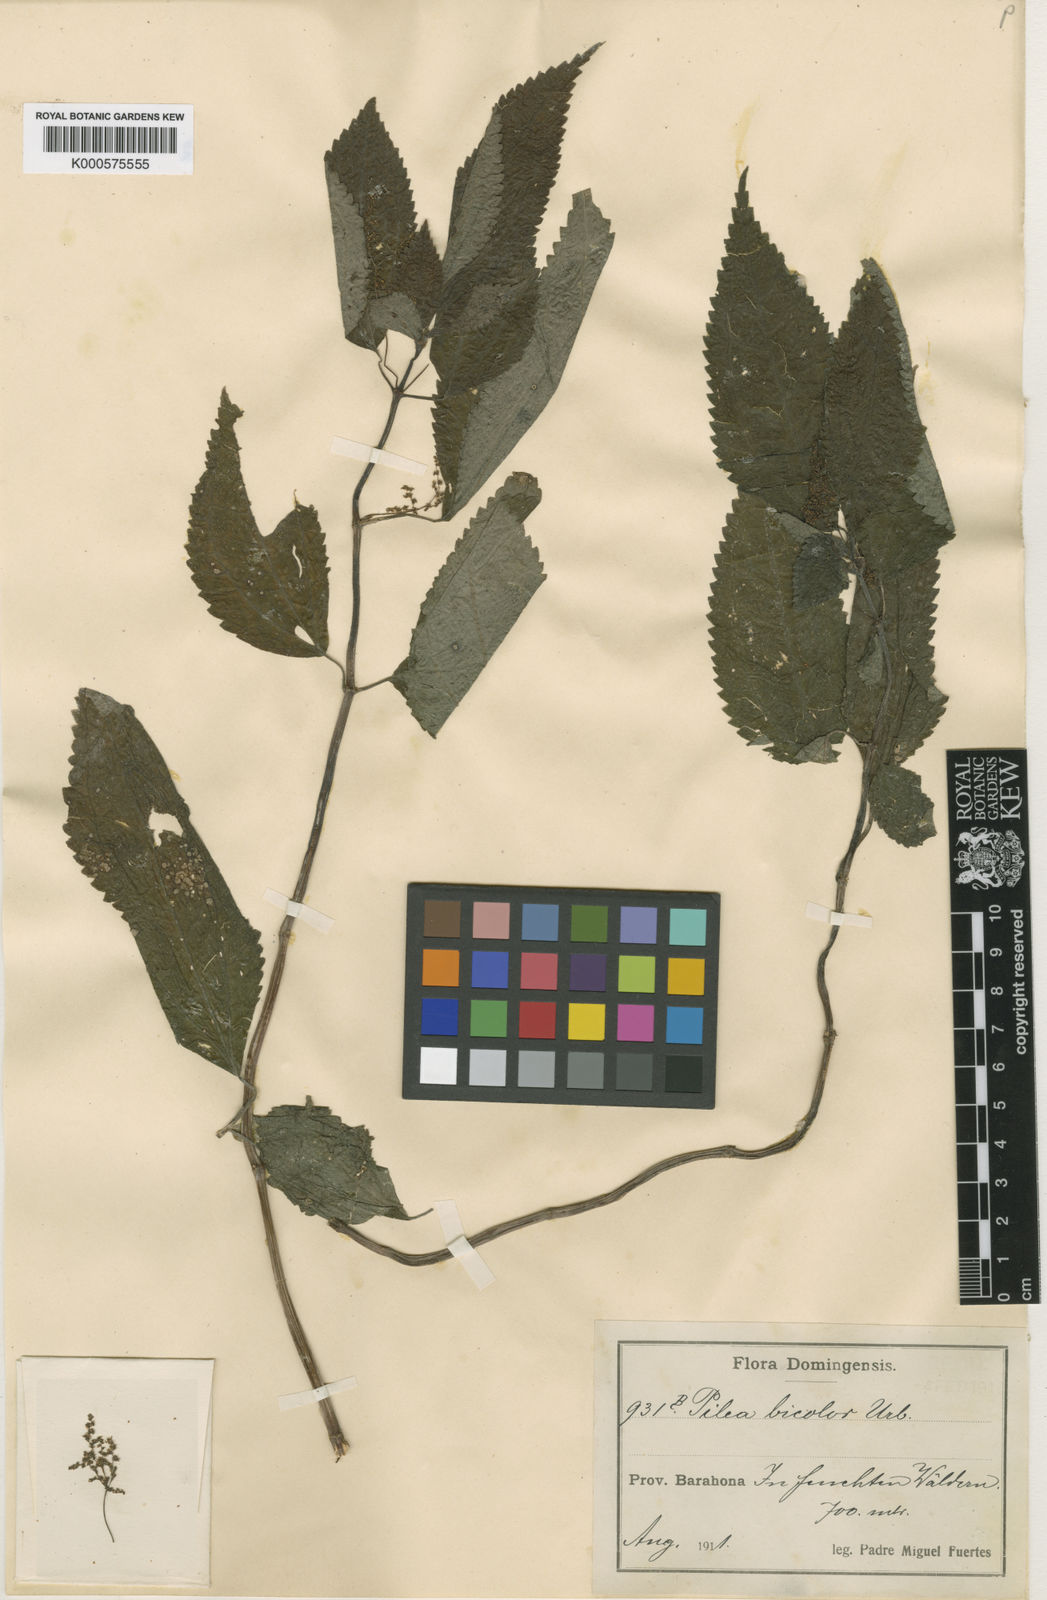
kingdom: Plantae
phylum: Tracheophyta
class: Magnoliopsida
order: Rosales
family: Urticaceae
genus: Pilea
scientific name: Pilea bicolor
